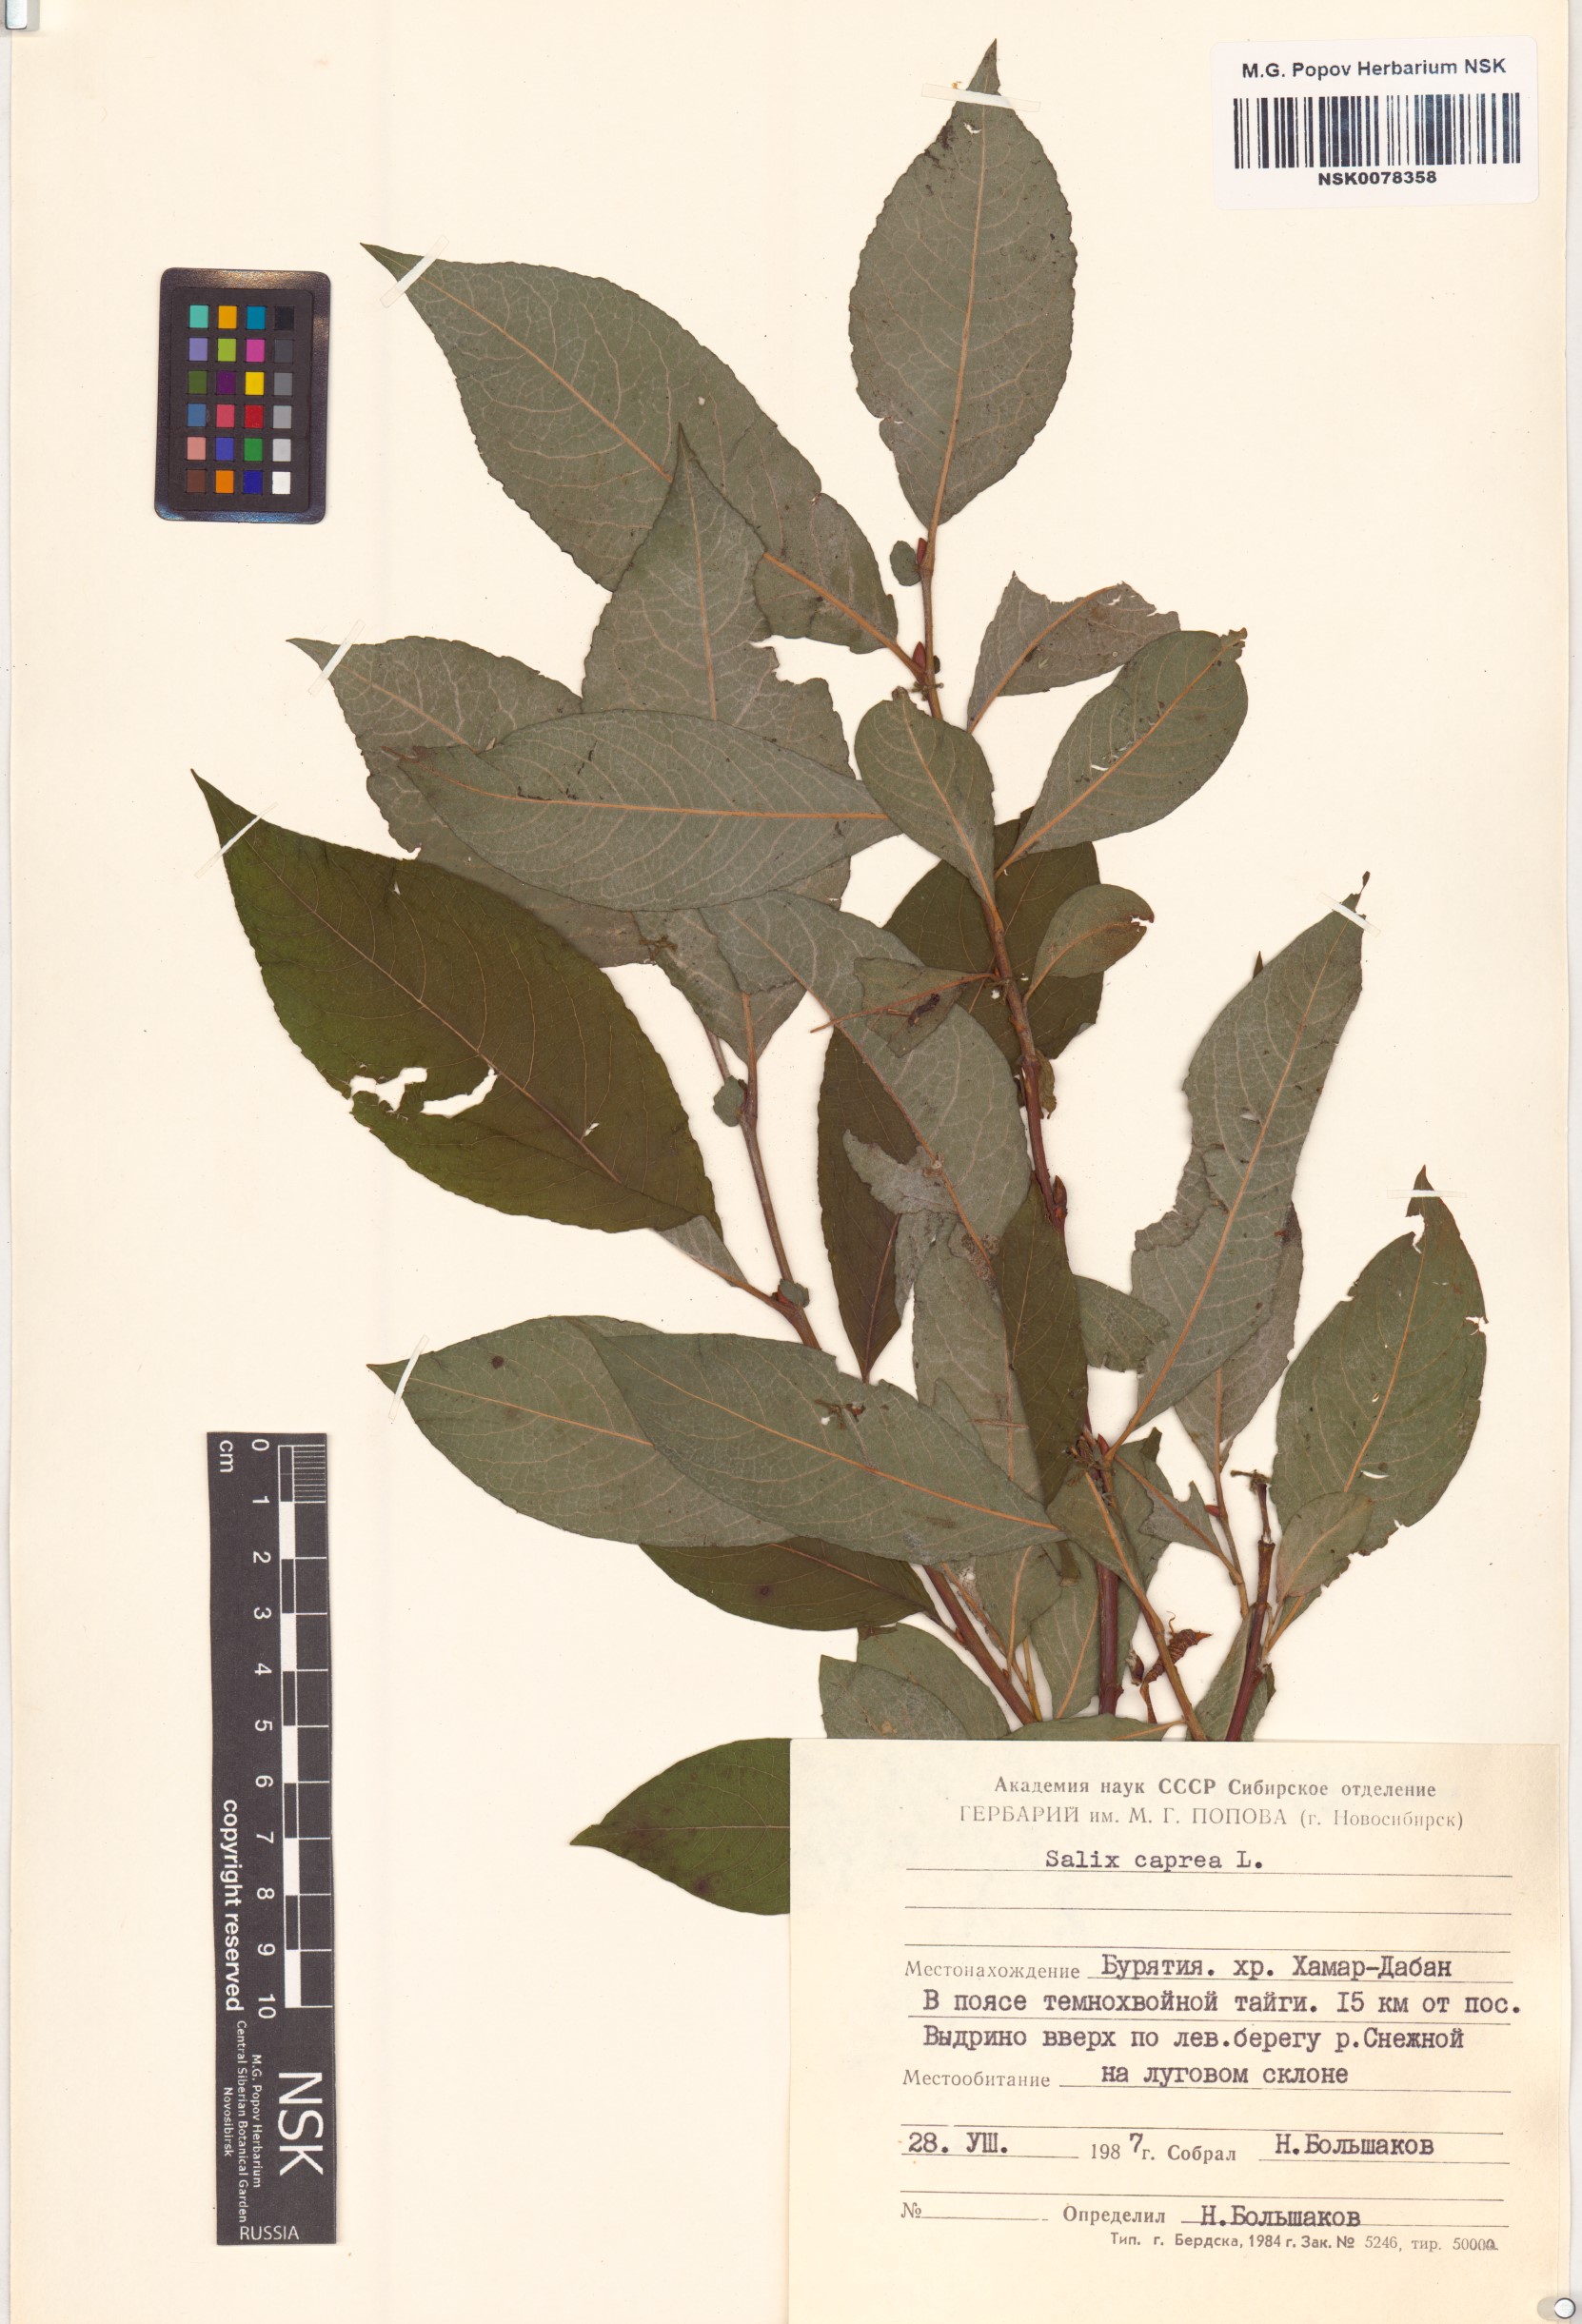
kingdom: Plantae
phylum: Tracheophyta
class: Magnoliopsida
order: Malpighiales
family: Salicaceae
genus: Salix
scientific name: Salix caprea
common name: Goat willow
